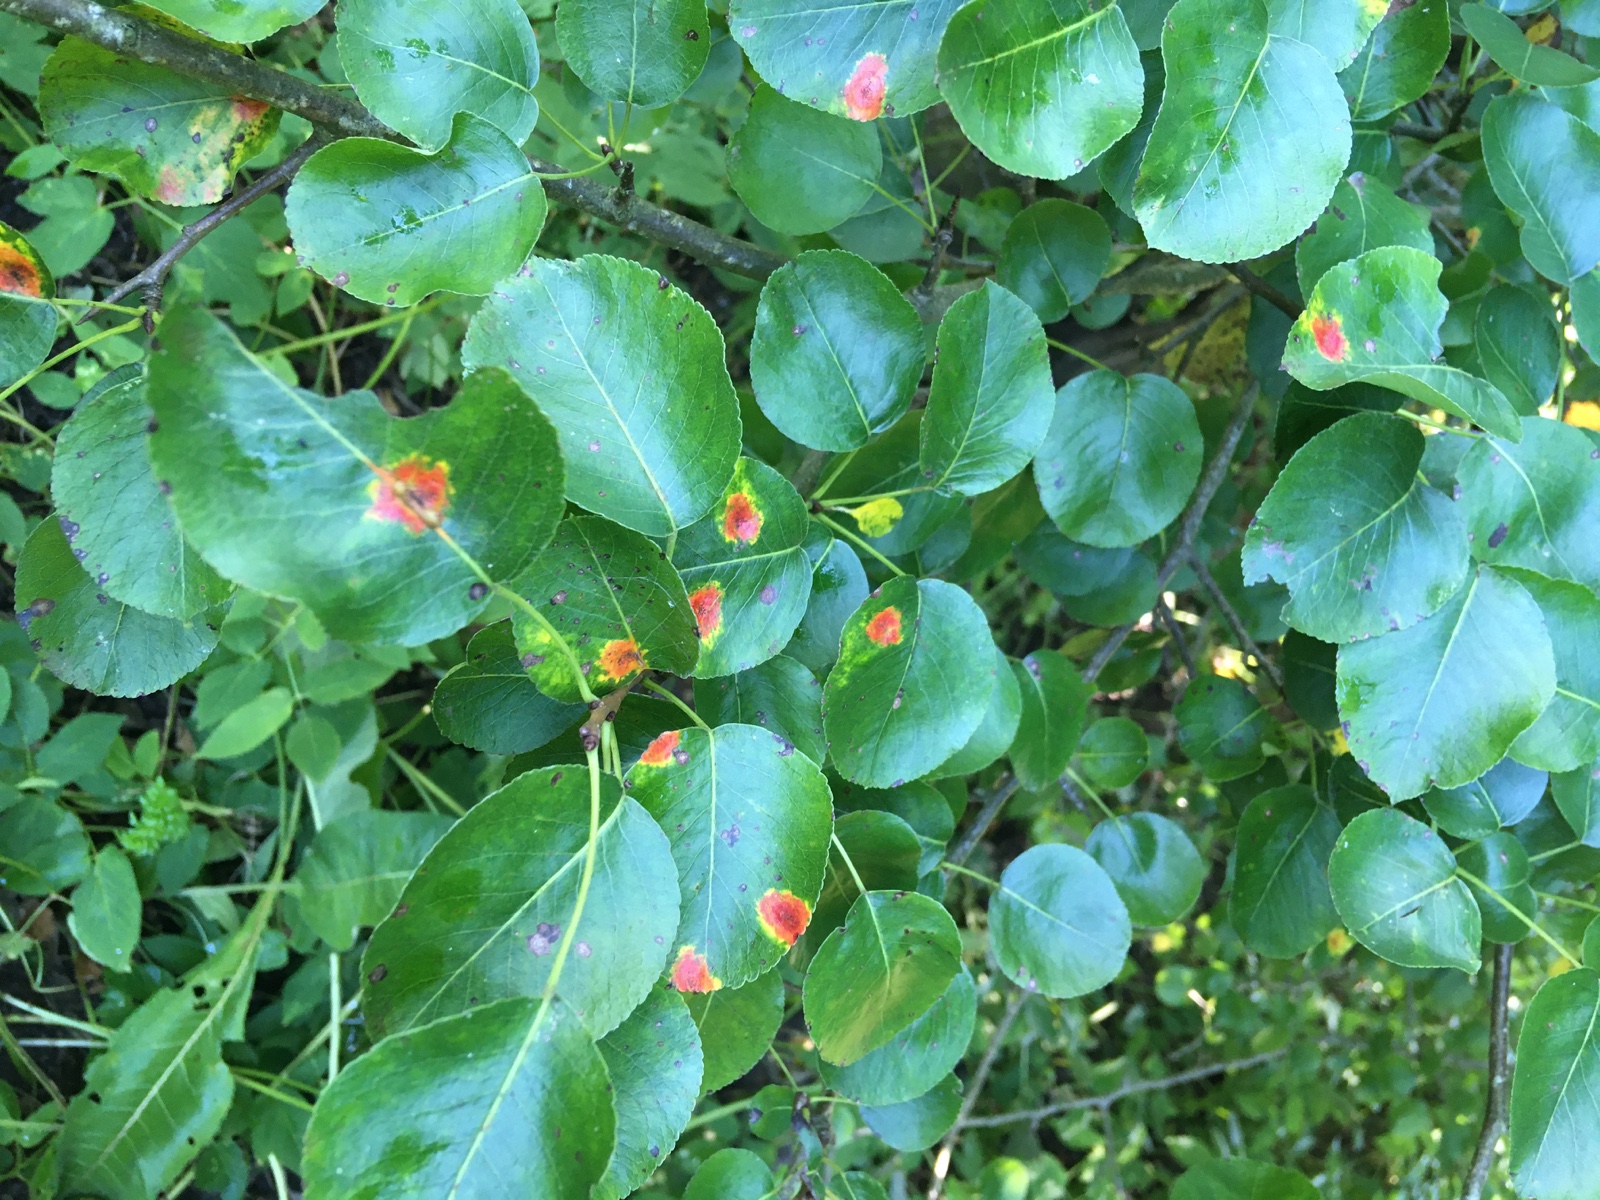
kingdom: Fungi
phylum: Basidiomycota
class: Pucciniomycetes
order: Pucciniales
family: Gymnosporangiaceae
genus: Gymnosporangium
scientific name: Gymnosporangium sabinae
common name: pæregitter-bævrerust
